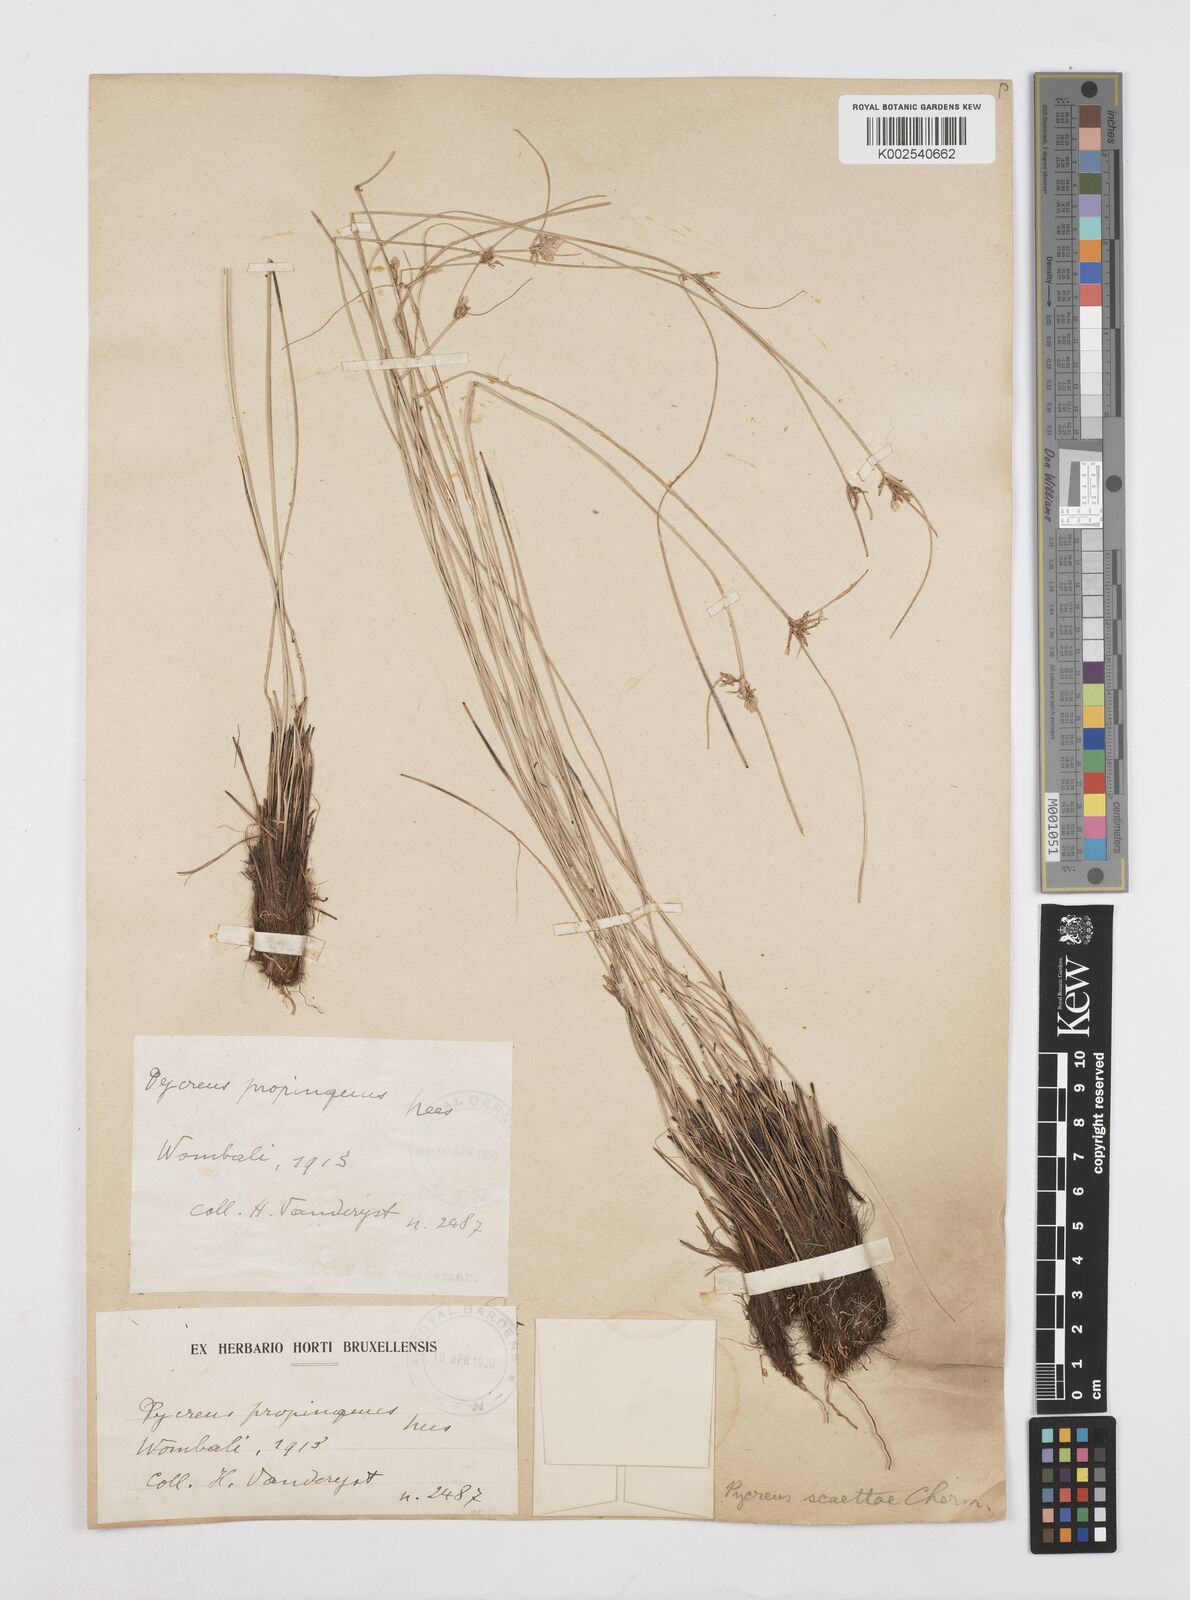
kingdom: Plantae
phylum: Tracheophyta
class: Liliopsida
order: Poales
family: Cyperaceae
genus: Cyperus
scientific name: Cyperus scaettae
